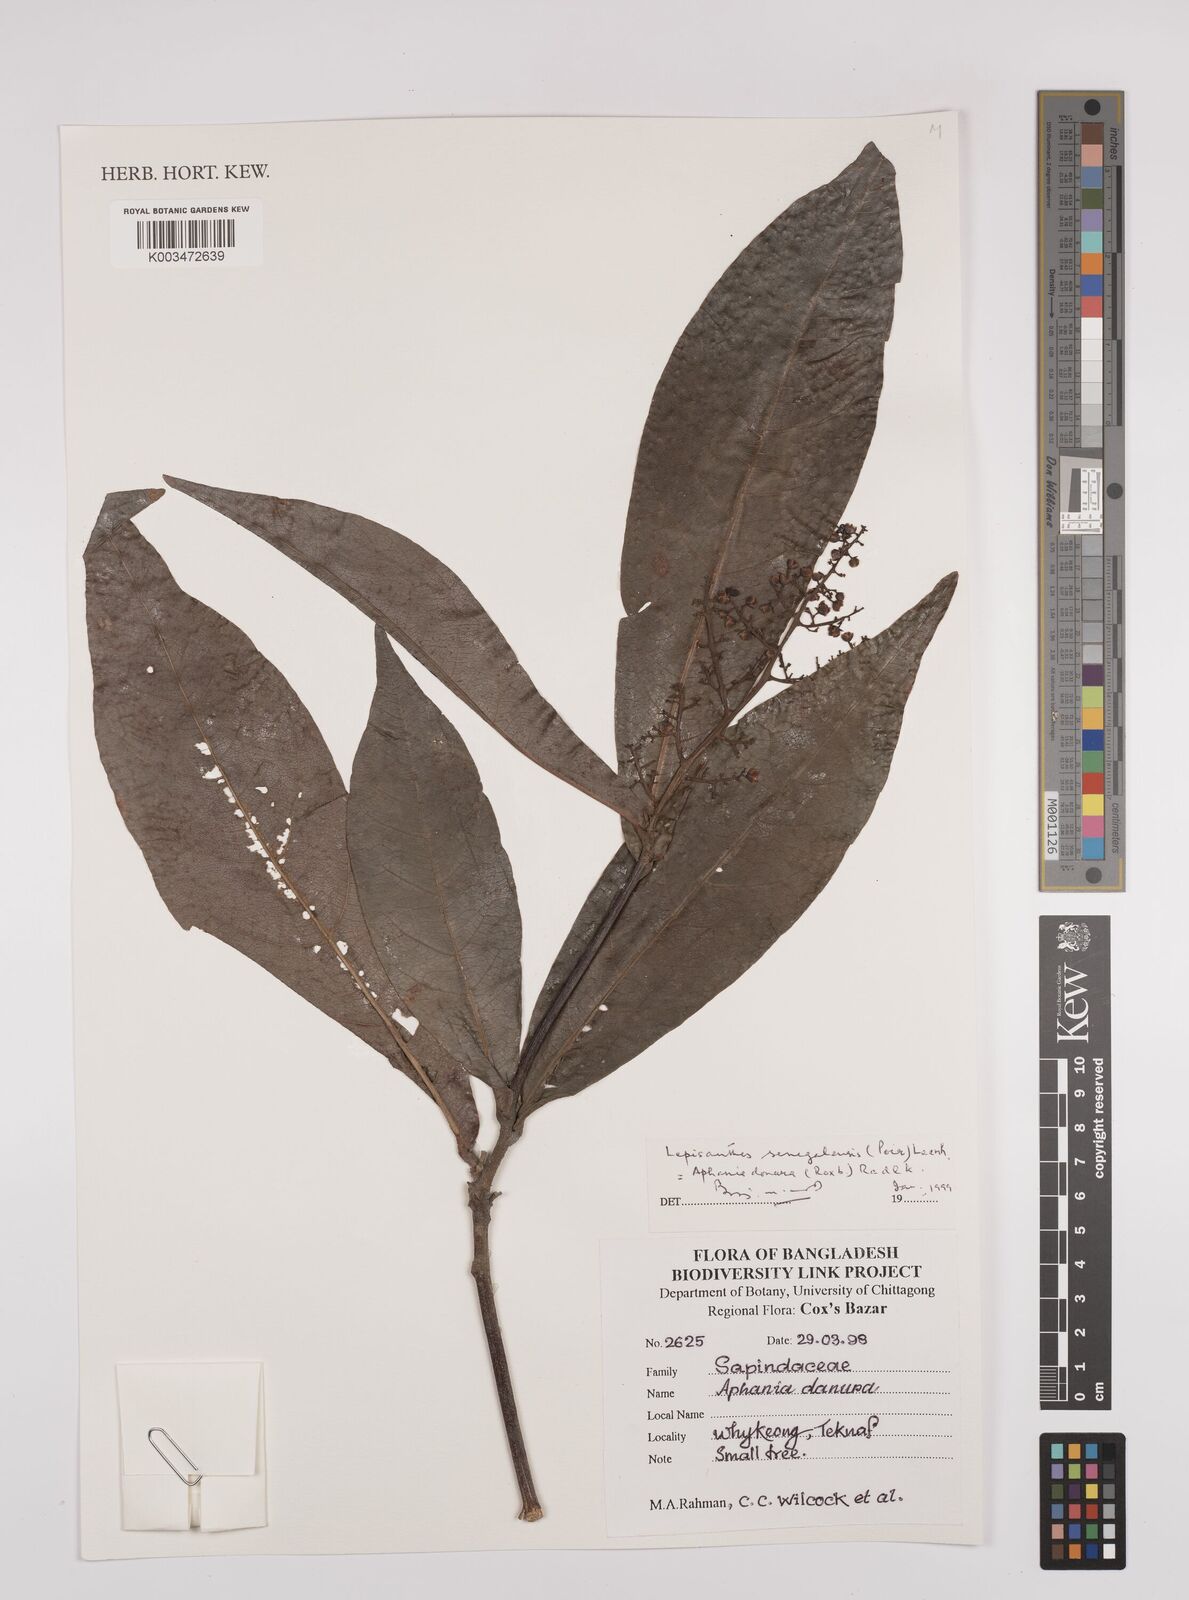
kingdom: Plantae
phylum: Tracheophyta
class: Magnoliopsida
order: Sapindales
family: Sapindaceae
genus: Lepisanthes
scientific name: Lepisanthes senegalensis
